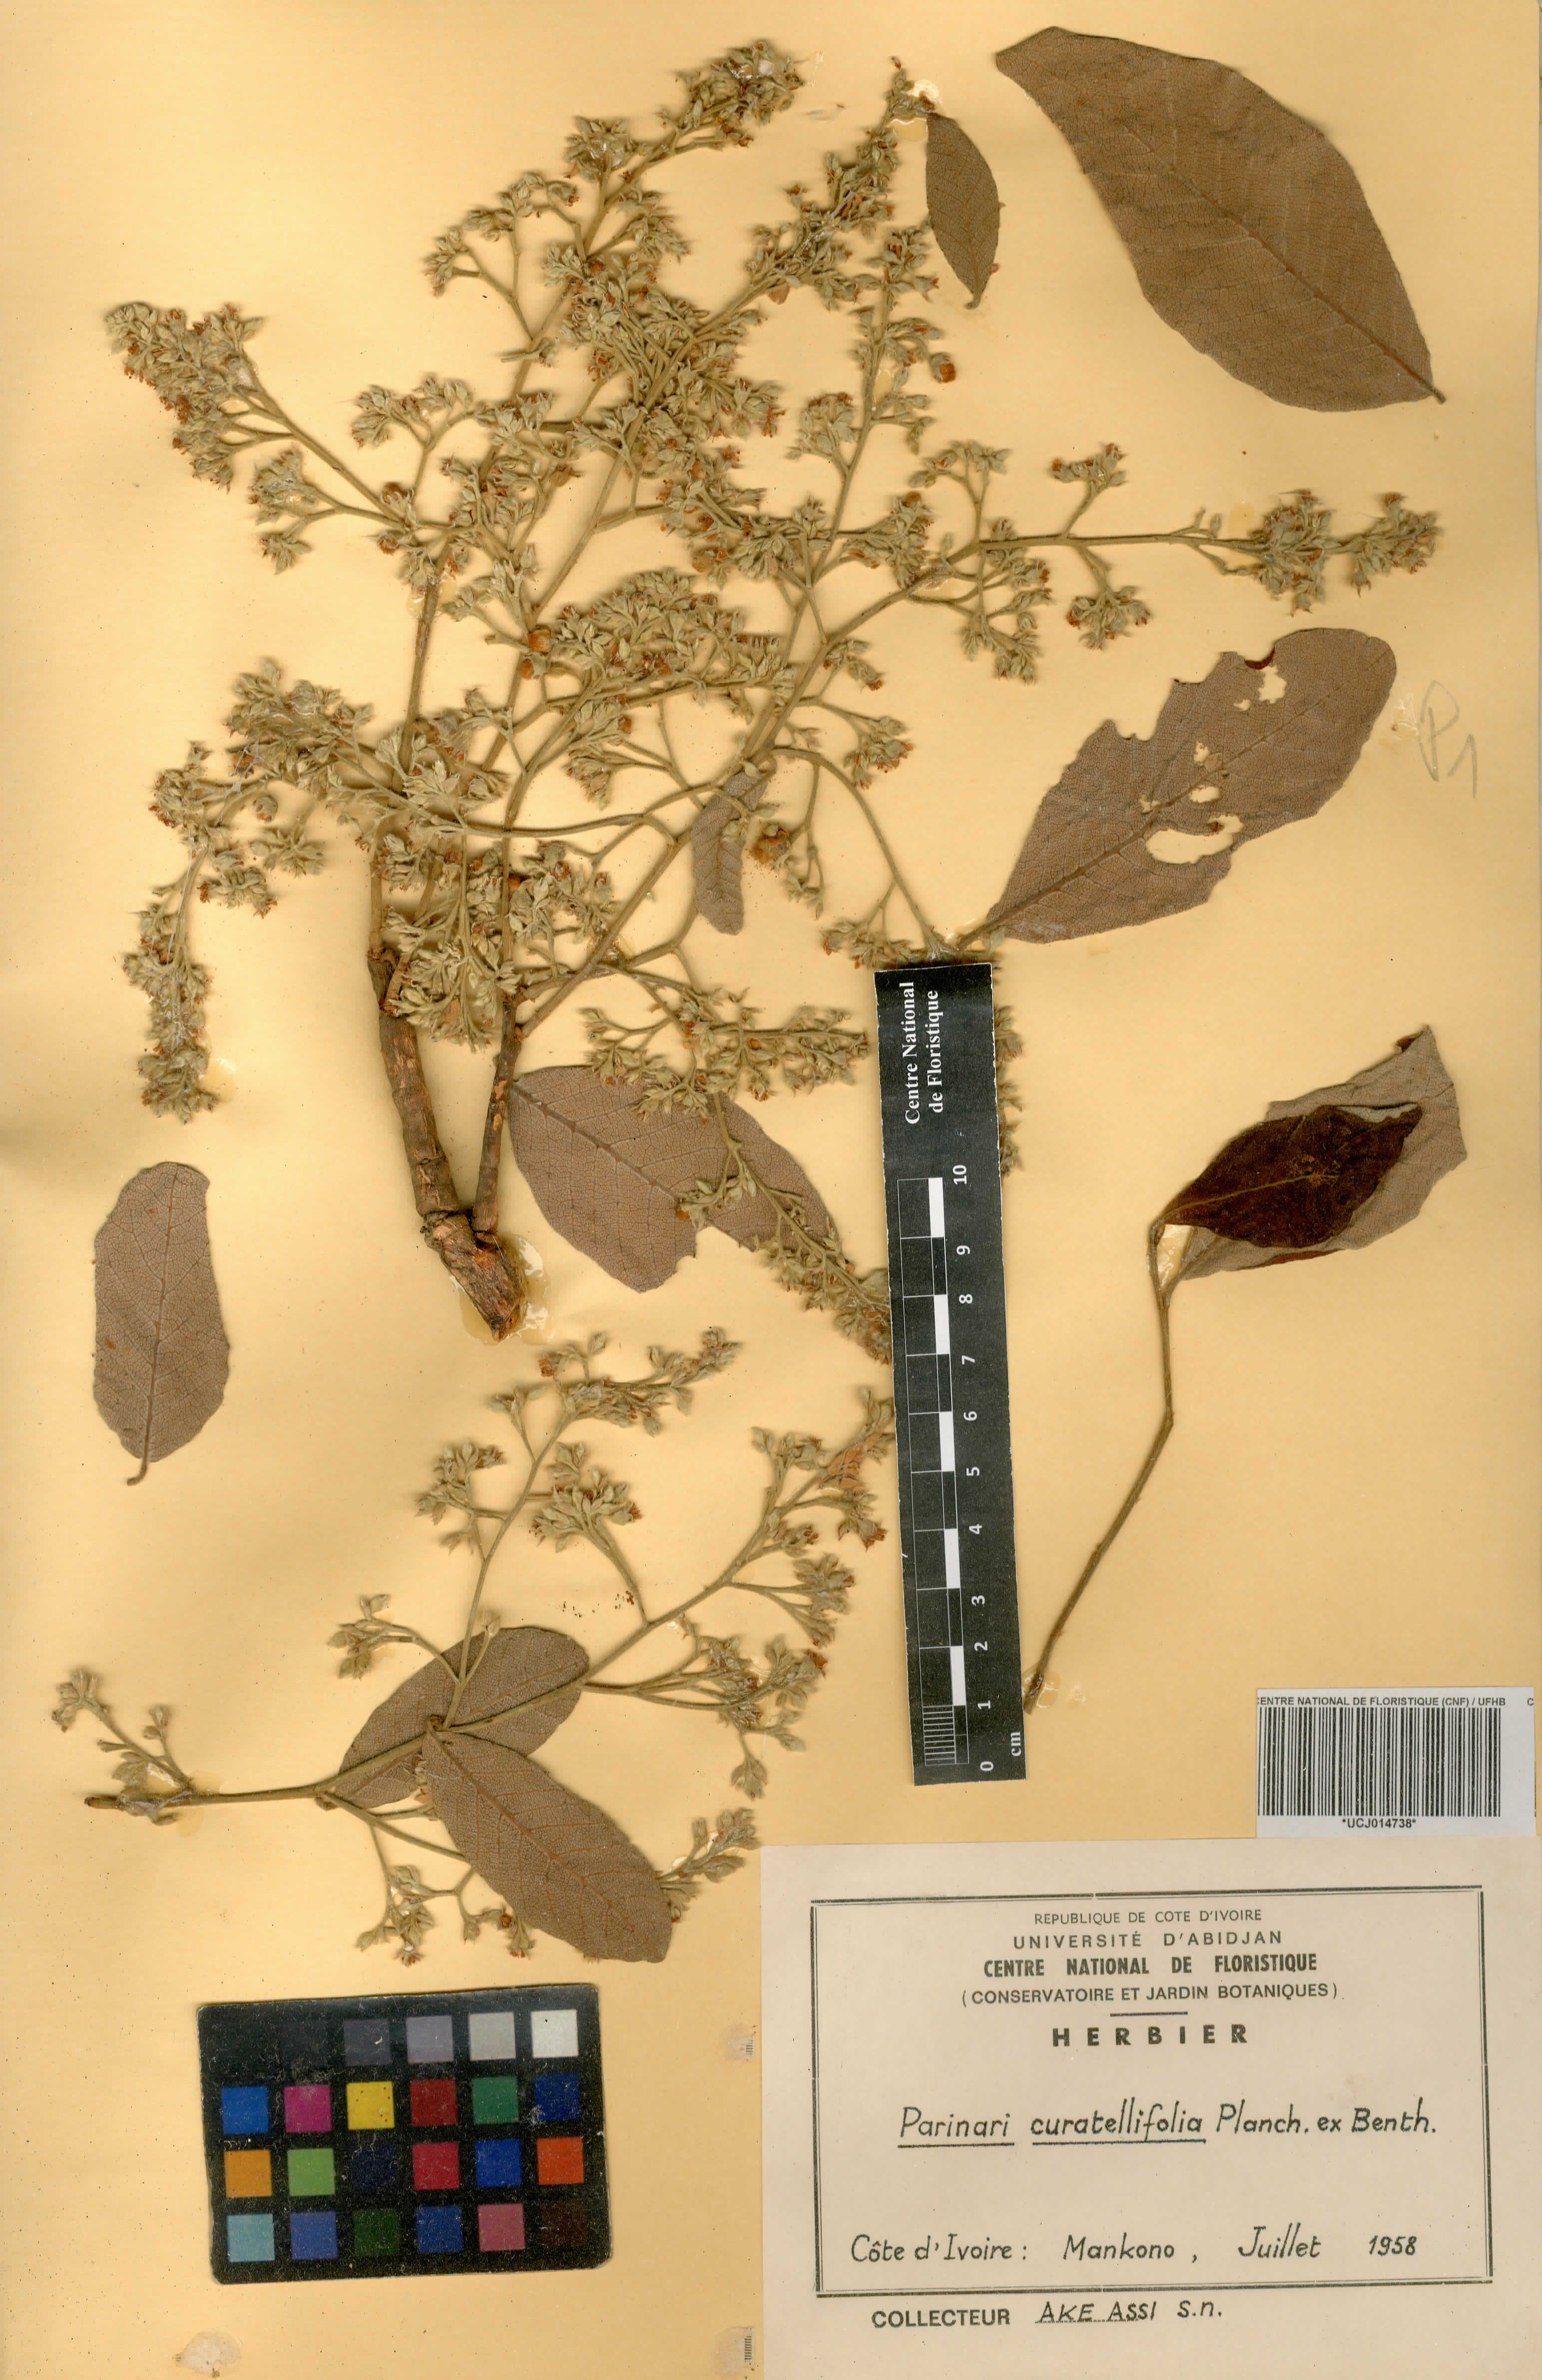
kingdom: Plantae
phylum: Tracheophyta
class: Magnoliopsida
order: Malpighiales
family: Chrysobalanaceae
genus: Parinari
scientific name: Parinari curatellifolia
